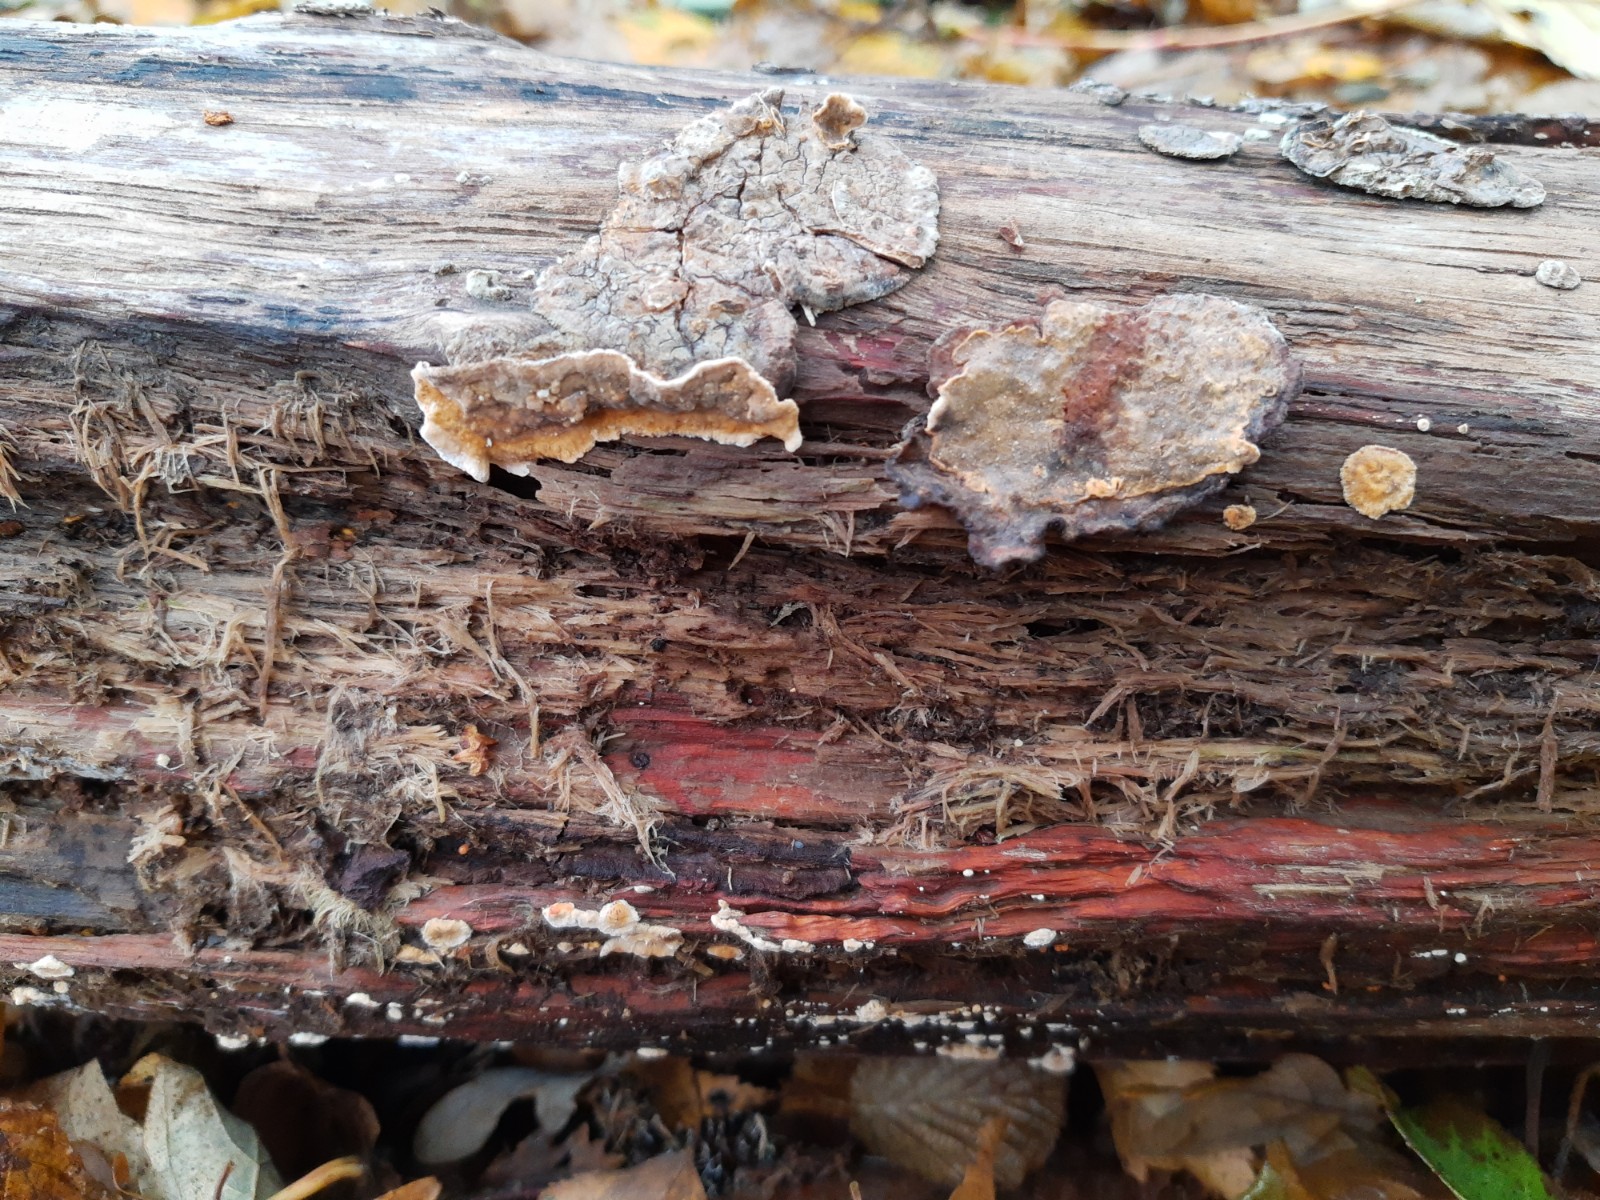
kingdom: Fungi
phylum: Basidiomycota
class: Agaricomycetes
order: Russulales
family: Stereaceae
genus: Stereum
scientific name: Stereum rugosum
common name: rynket lædersvamp
